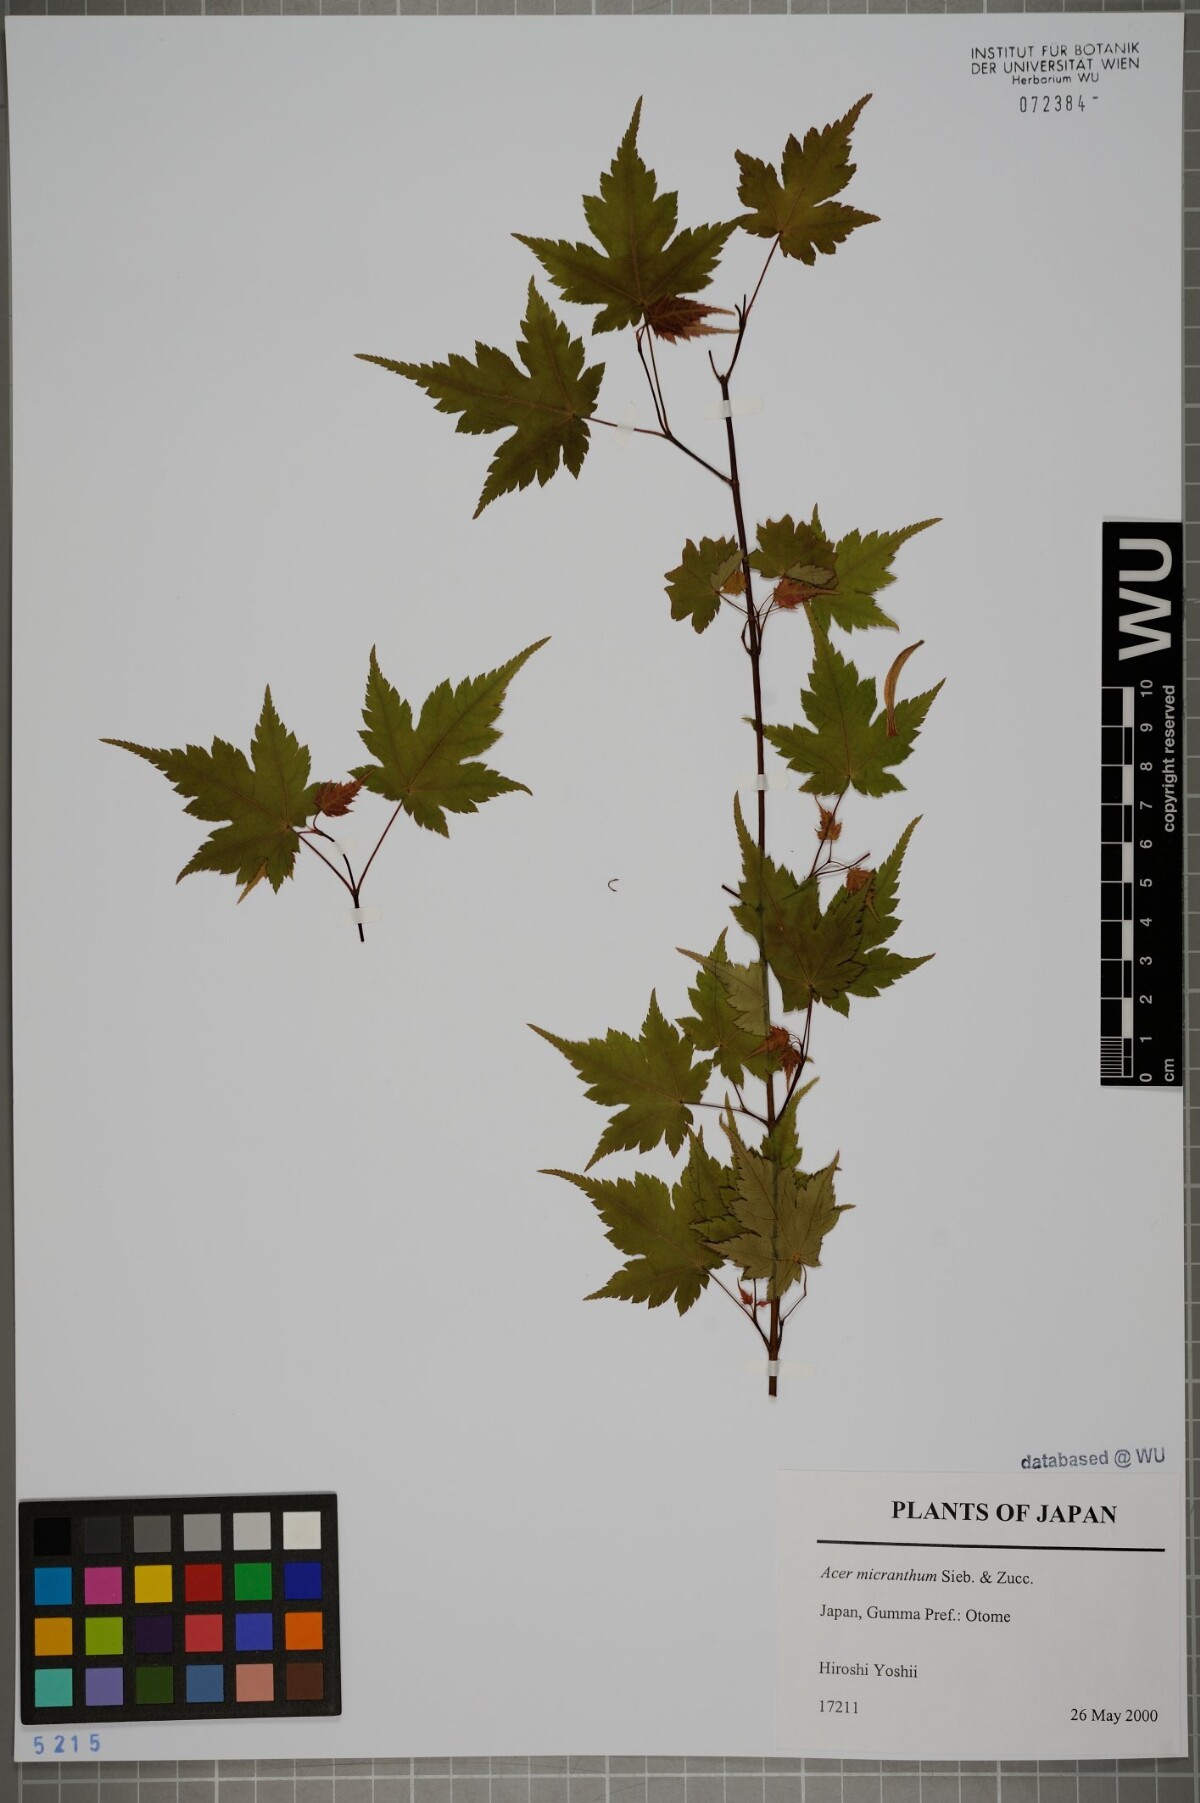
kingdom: Plantae
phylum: Tracheophyta
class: Magnoliopsida
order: Sapindales
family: Sapindaceae
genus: Acer
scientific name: Acer micranthum
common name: Komine maple
